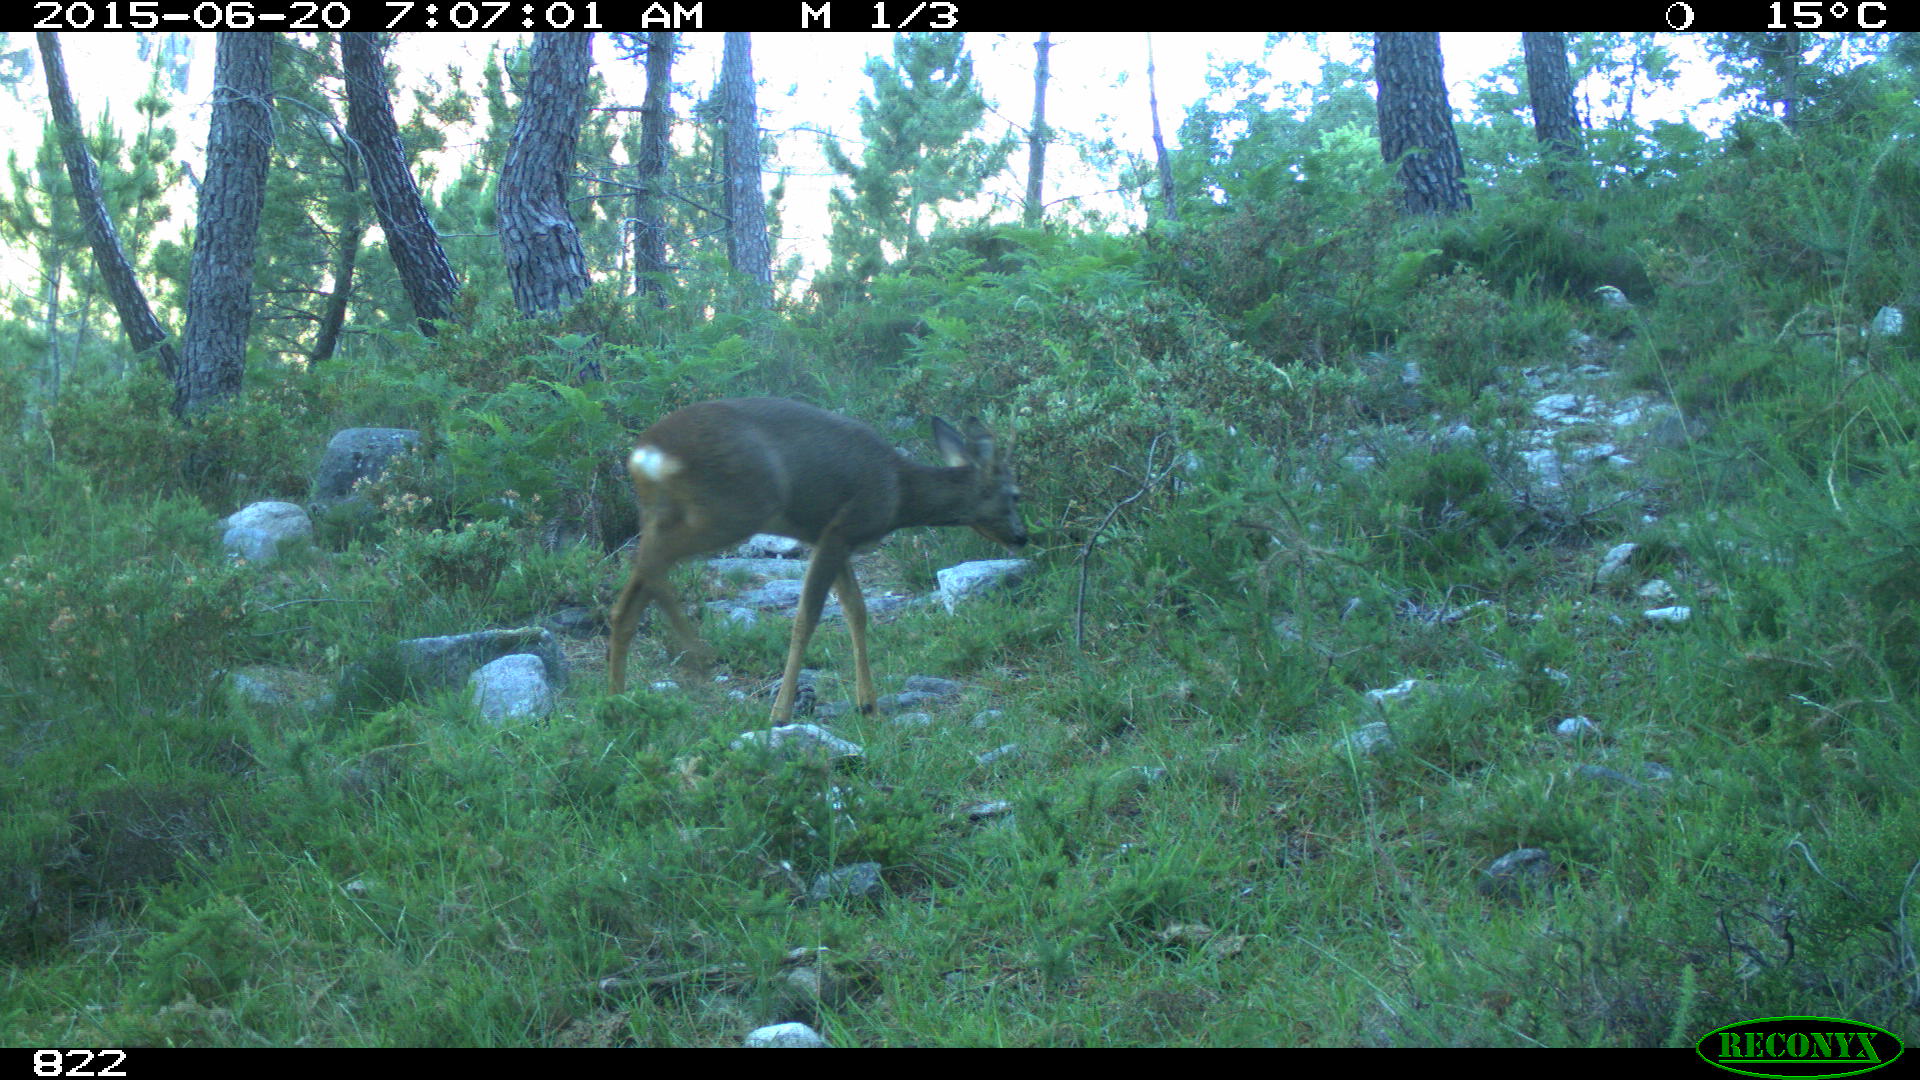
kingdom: Animalia
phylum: Chordata
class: Mammalia
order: Artiodactyla
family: Cervidae
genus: Capreolus
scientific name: Capreolus capreolus
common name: Western roe deer
